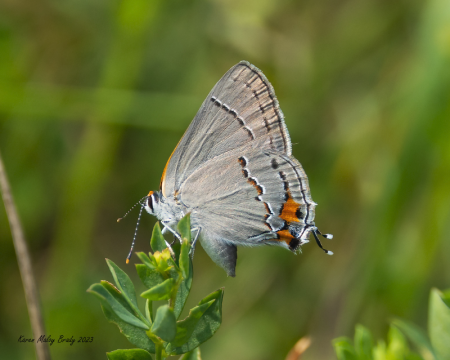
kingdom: Animalia
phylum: Arthropoda
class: Insecta
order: Lepidoptera
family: Lycaenidae
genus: Strymon
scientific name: Strymon melinus
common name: Gray Hairstreak
